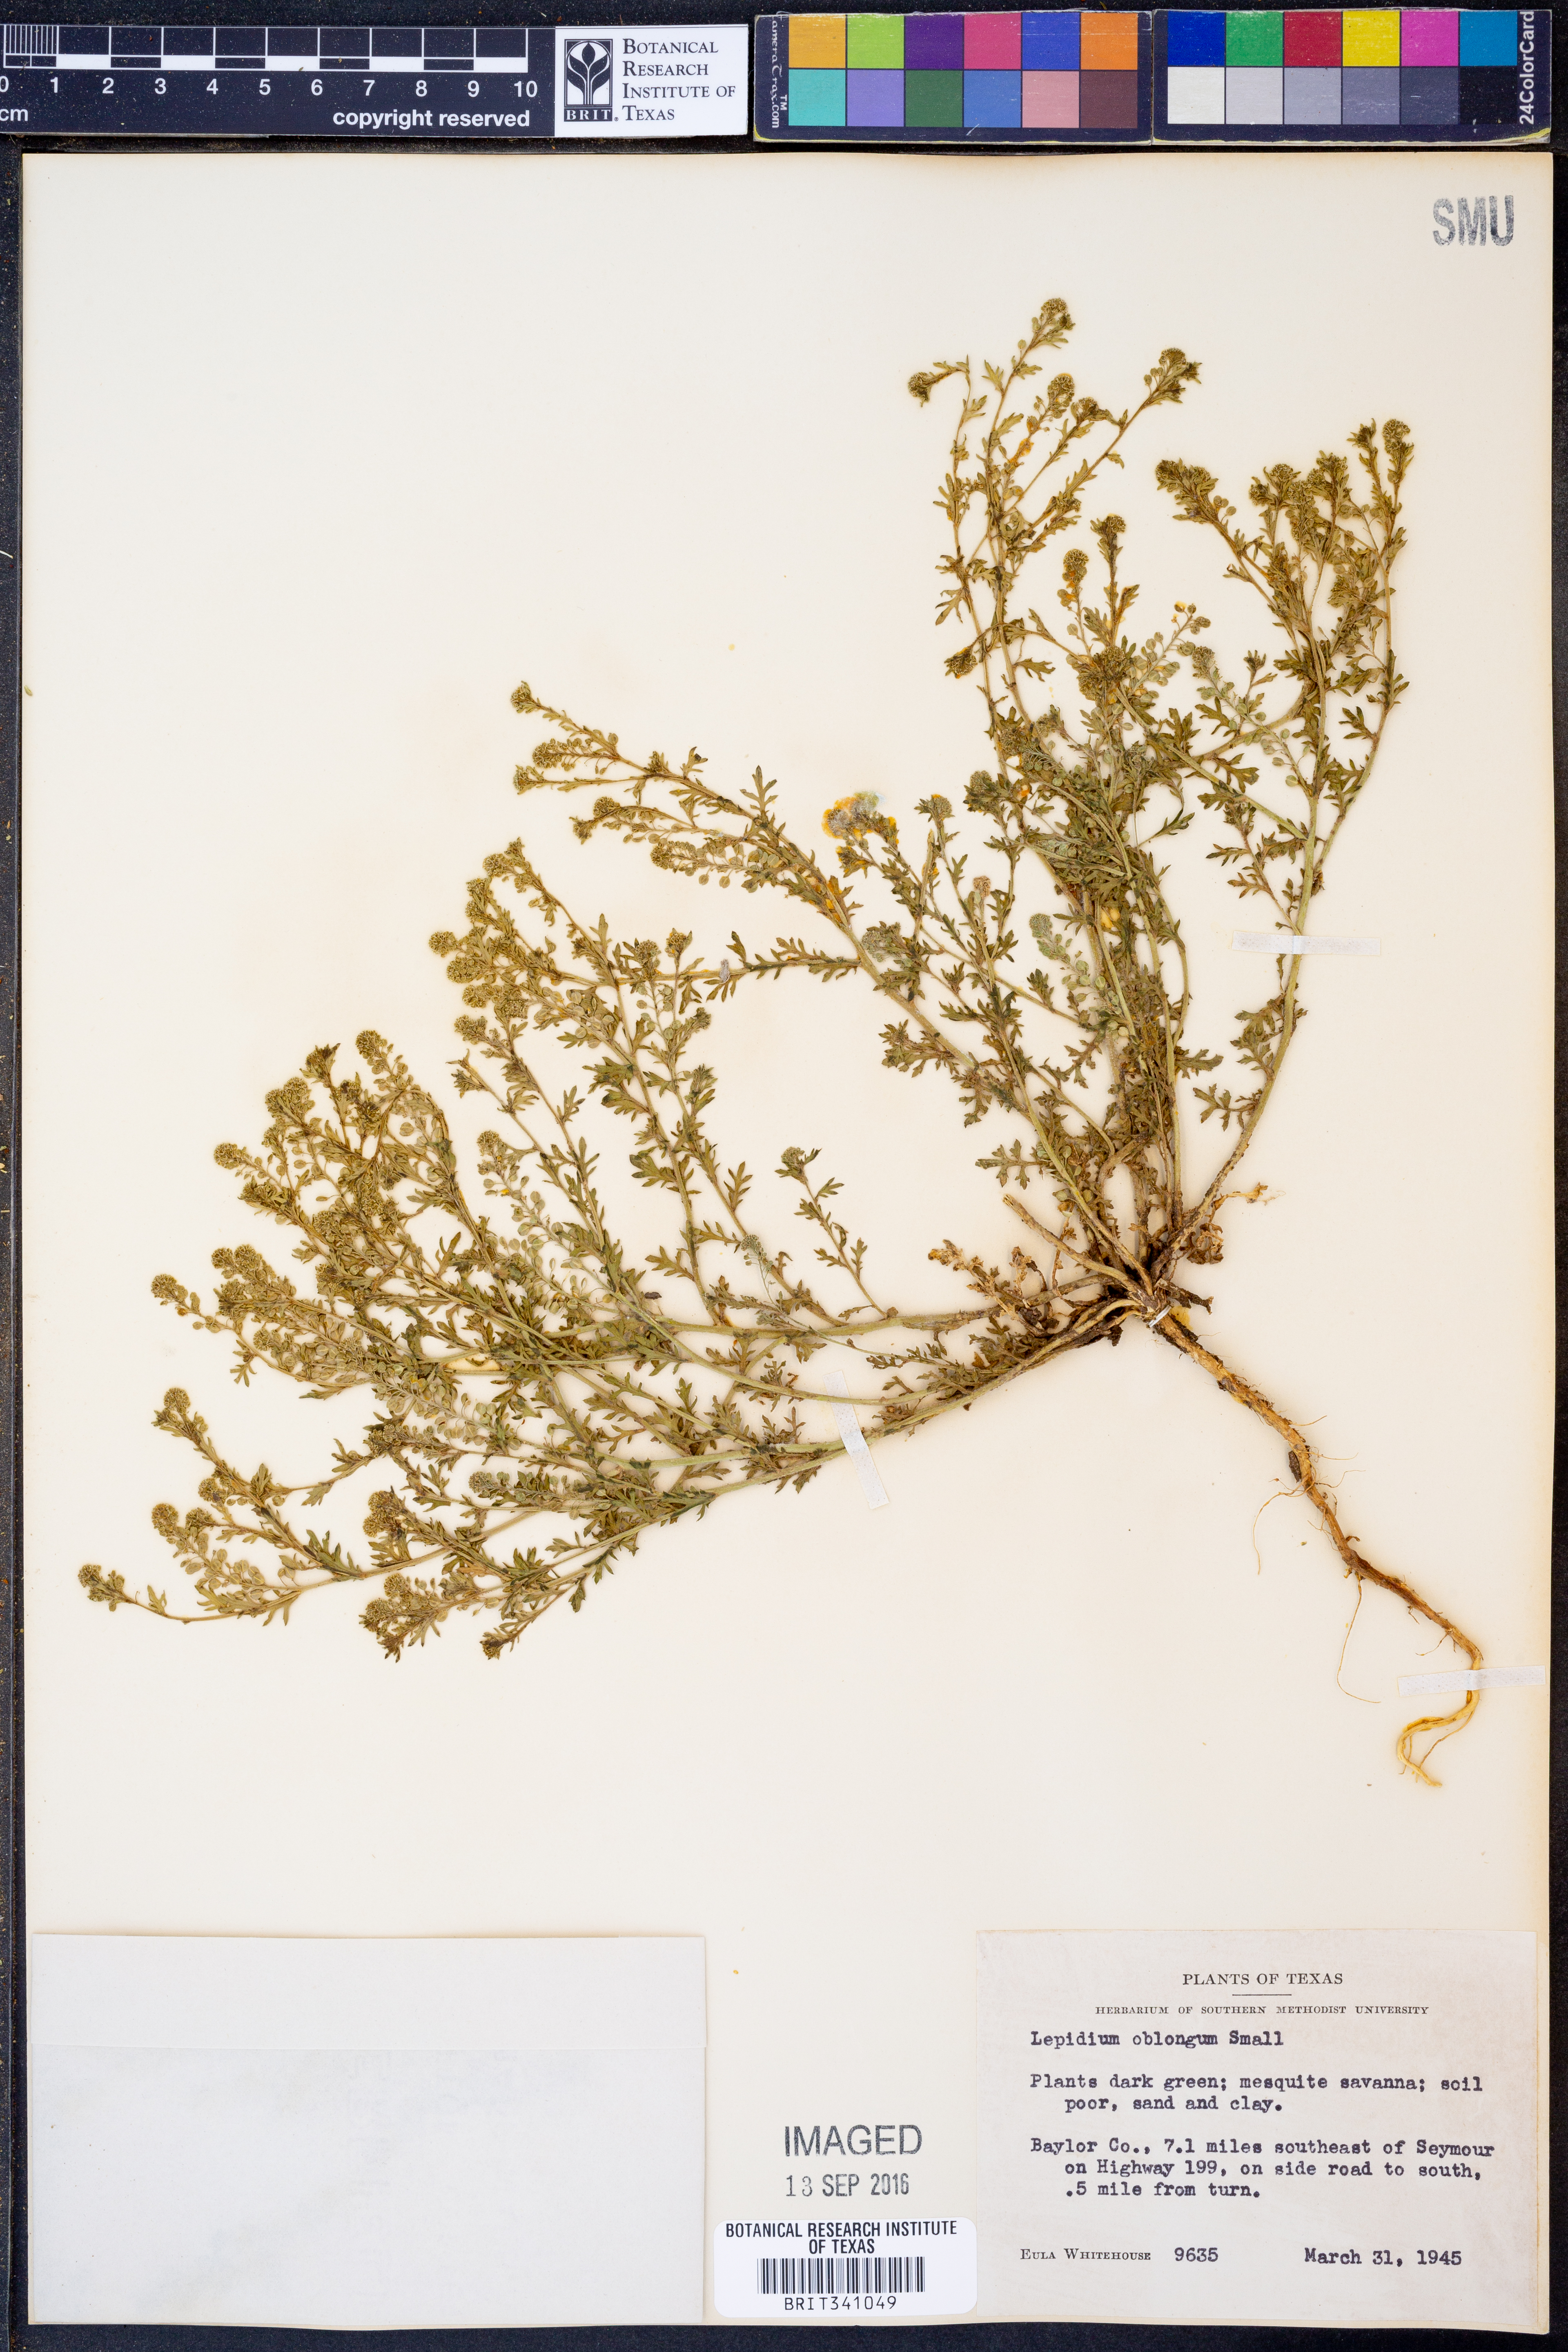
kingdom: Plantae
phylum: Tracheophyta
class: Magnoliopsida
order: Brassicales
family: Brassicaceae
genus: Lepidium
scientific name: Lepidium oblongum
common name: Veiny pepperweed
